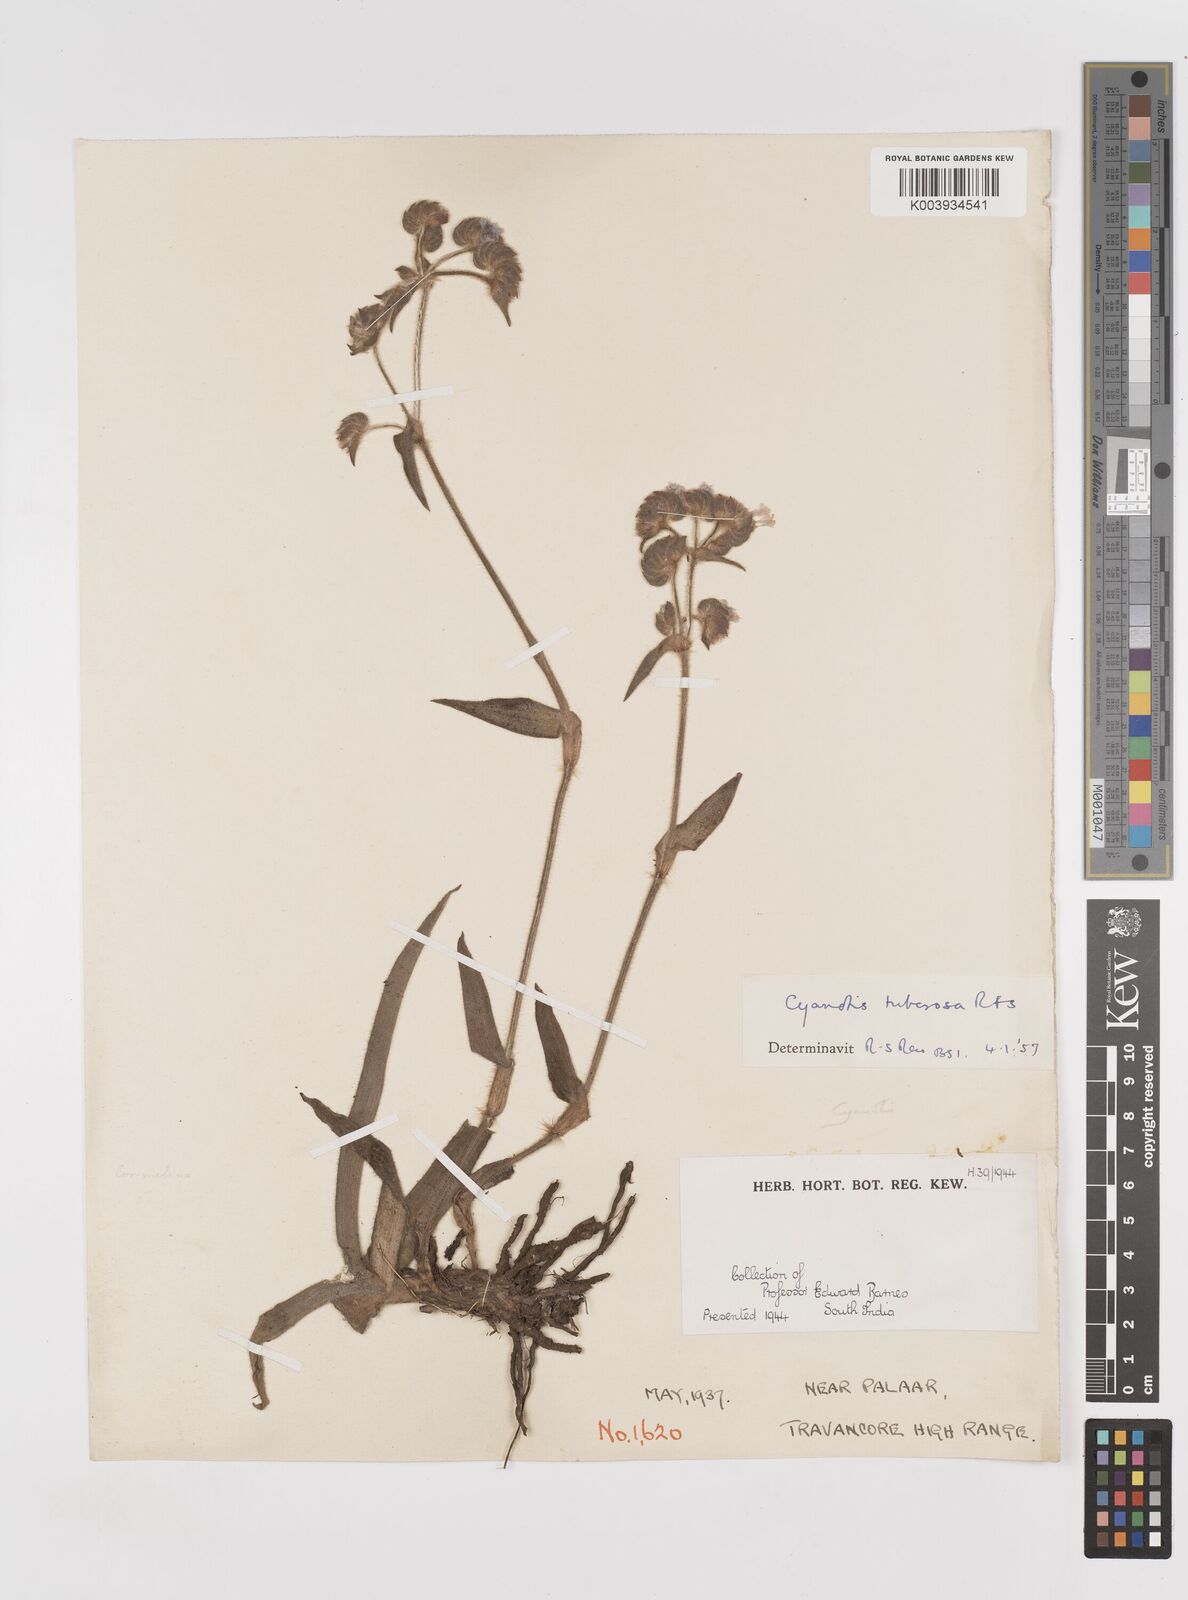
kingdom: Plantae
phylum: Tracheophyta
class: Liliopsida
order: Commelinales
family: Commelinaceae
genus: Cyanotis
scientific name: Cyanotis tuberosa
